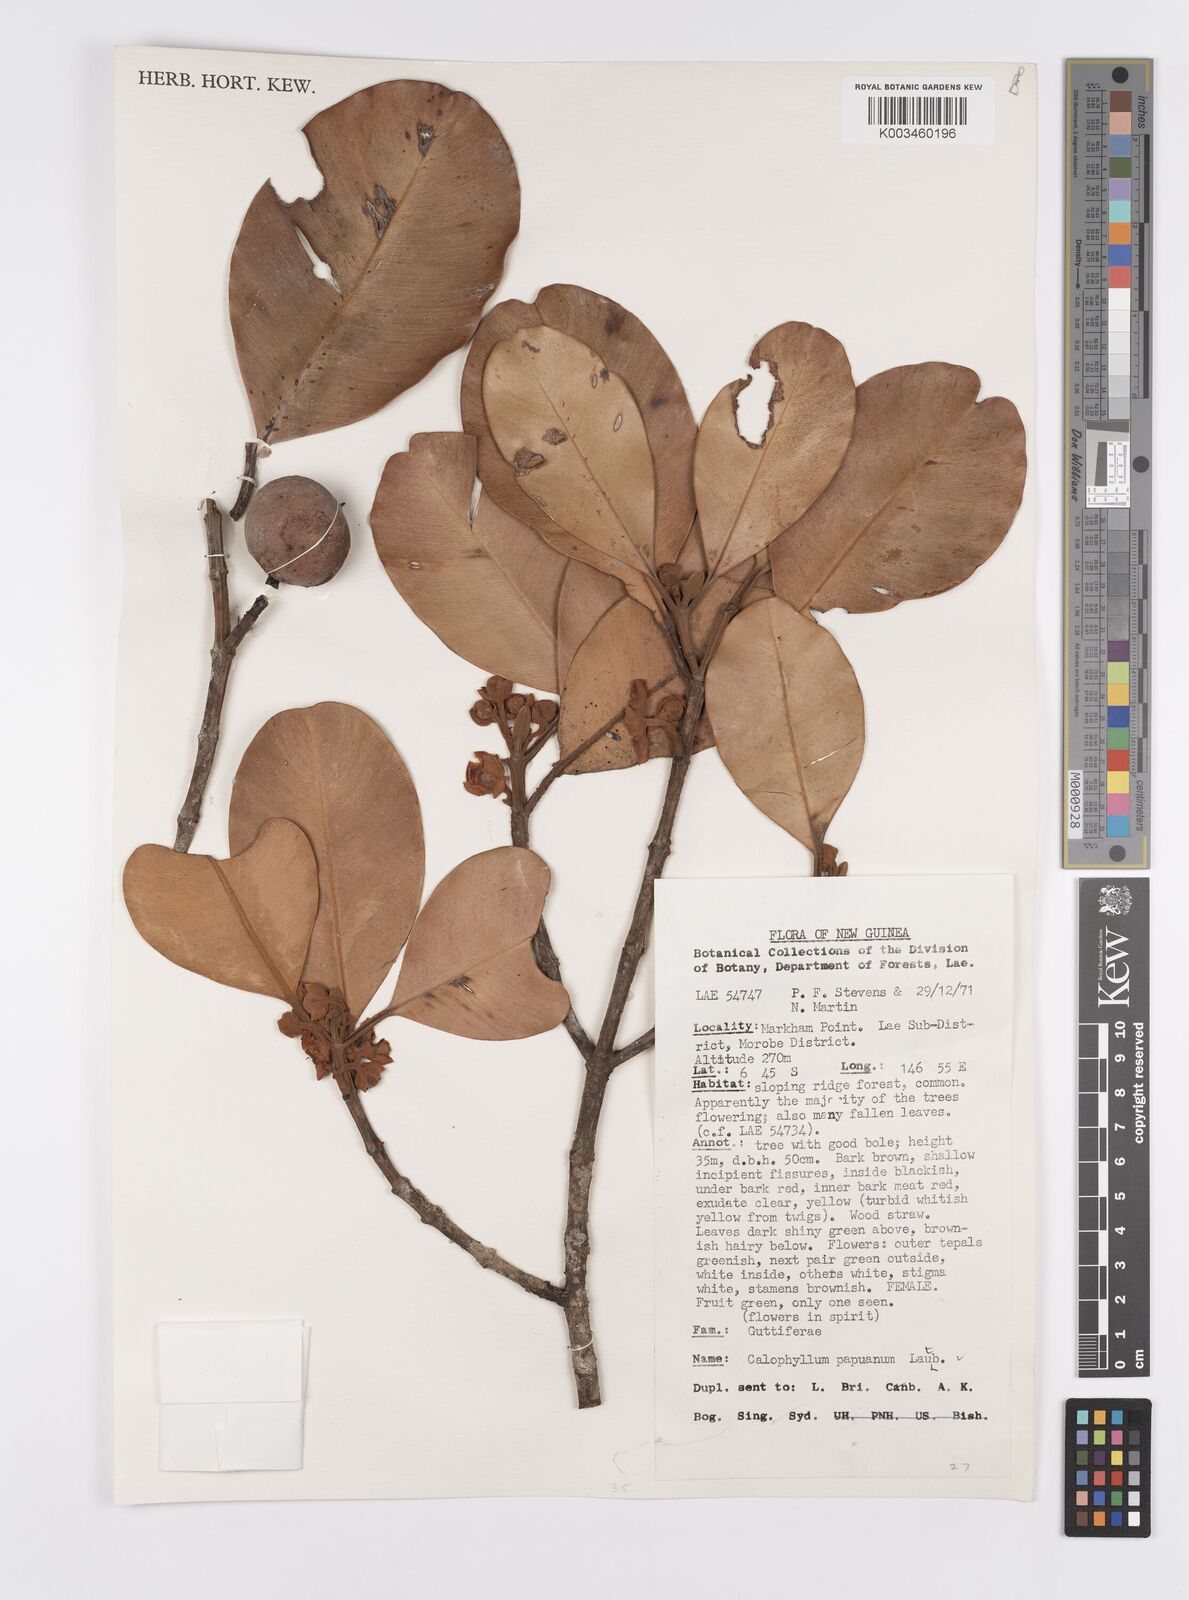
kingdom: Plantae
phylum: Tracheophyta
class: Magnoliopsida
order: Malpighiales
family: Calophyllaceae
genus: Calophyllum
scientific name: Calophyllum papuanum
